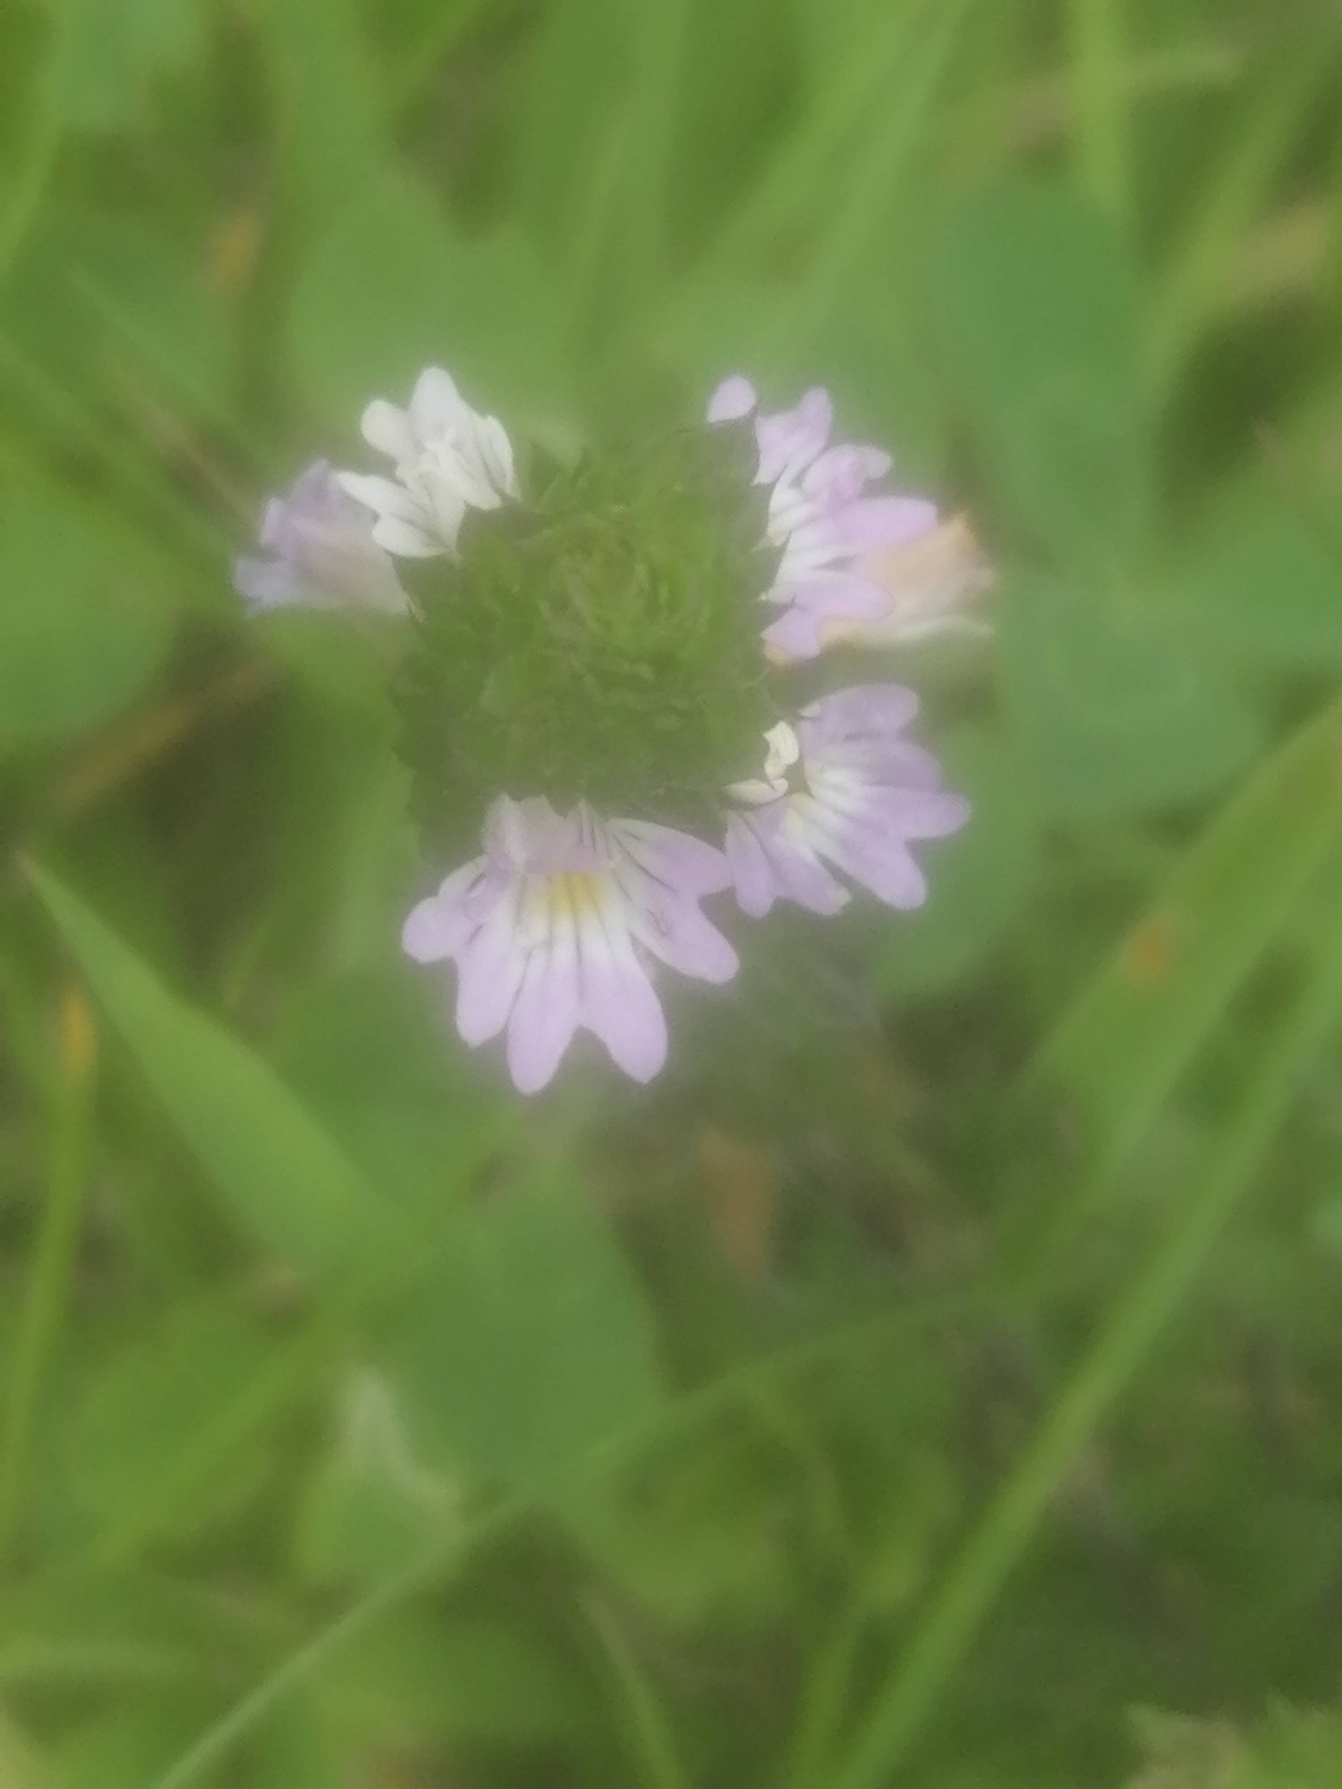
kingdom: Plantae
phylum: Tracheophyta
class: Magnoliopsida
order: Lamiales
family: Orobanchaceae
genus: Euphrasia
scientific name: Euphrasia stricta
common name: Spids øjentrøst
